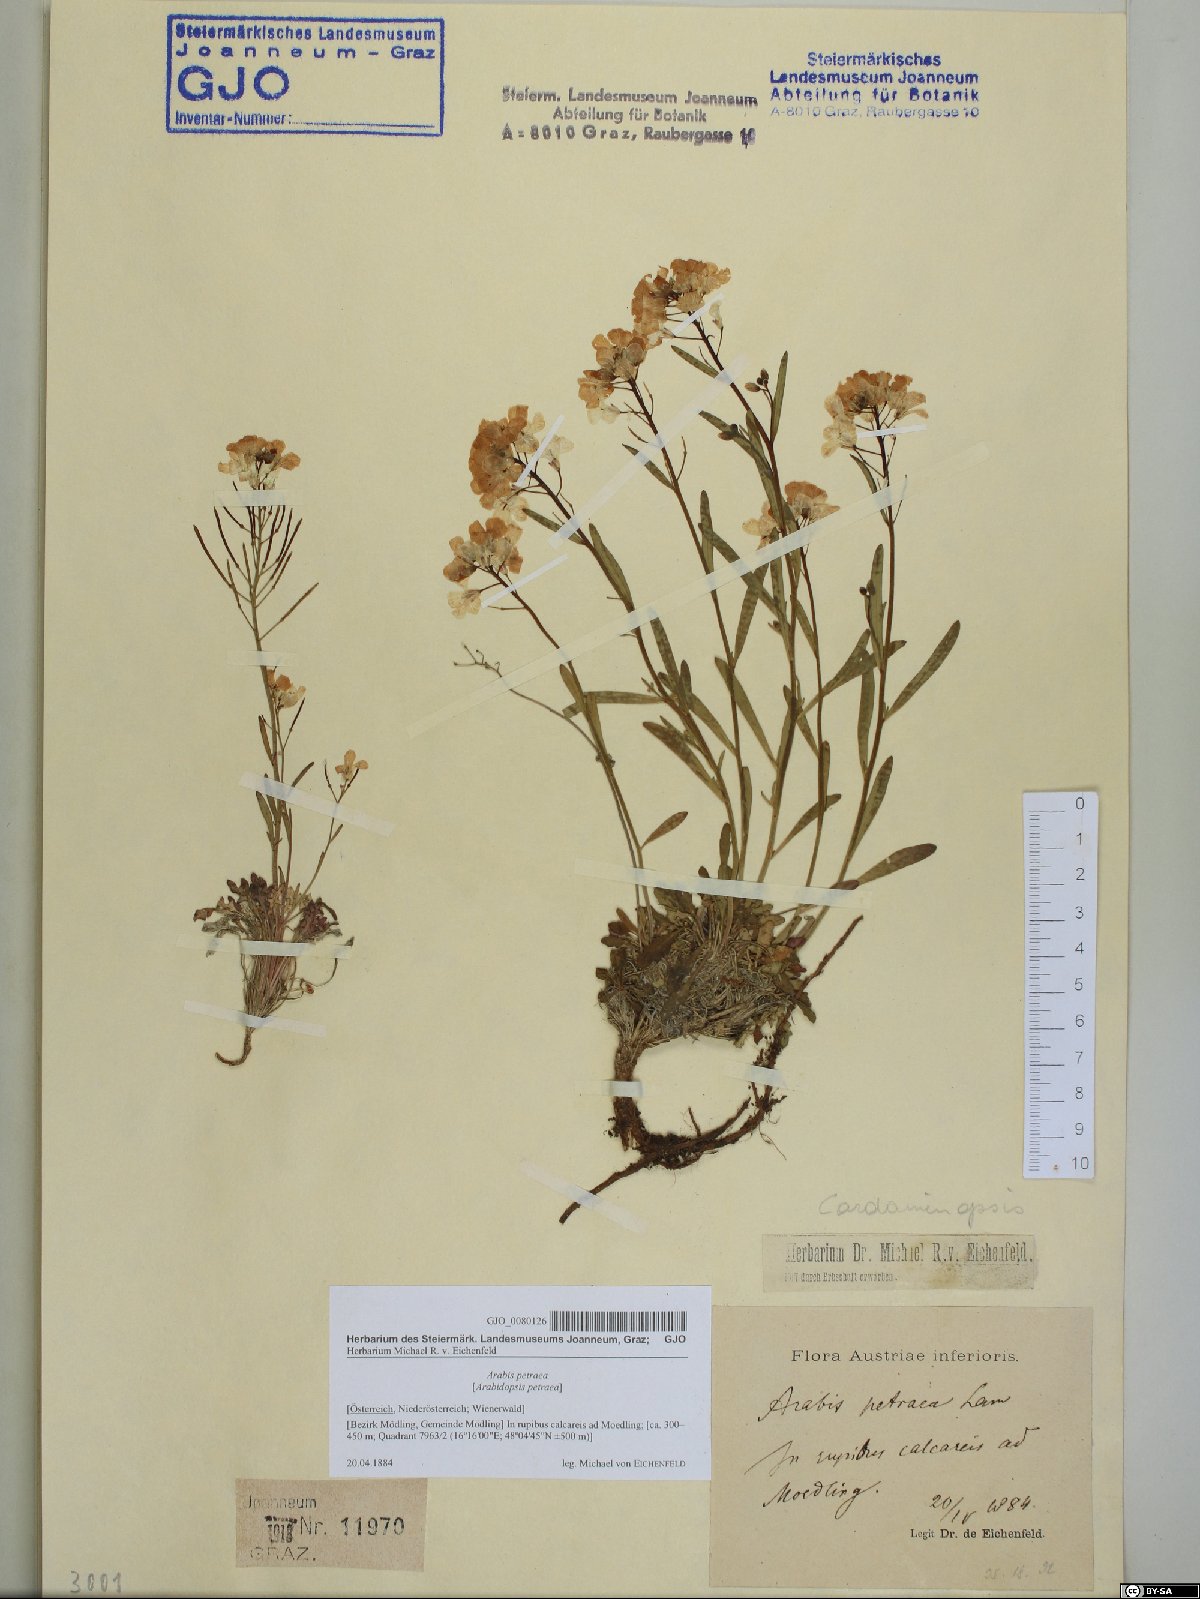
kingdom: Plantae
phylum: Tracheophyta
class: Magnoliopsida
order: Brassicales
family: Brassicaceae
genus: Arabidopsis
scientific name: Arabidopsis lyrata
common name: Lyrate rockcress
